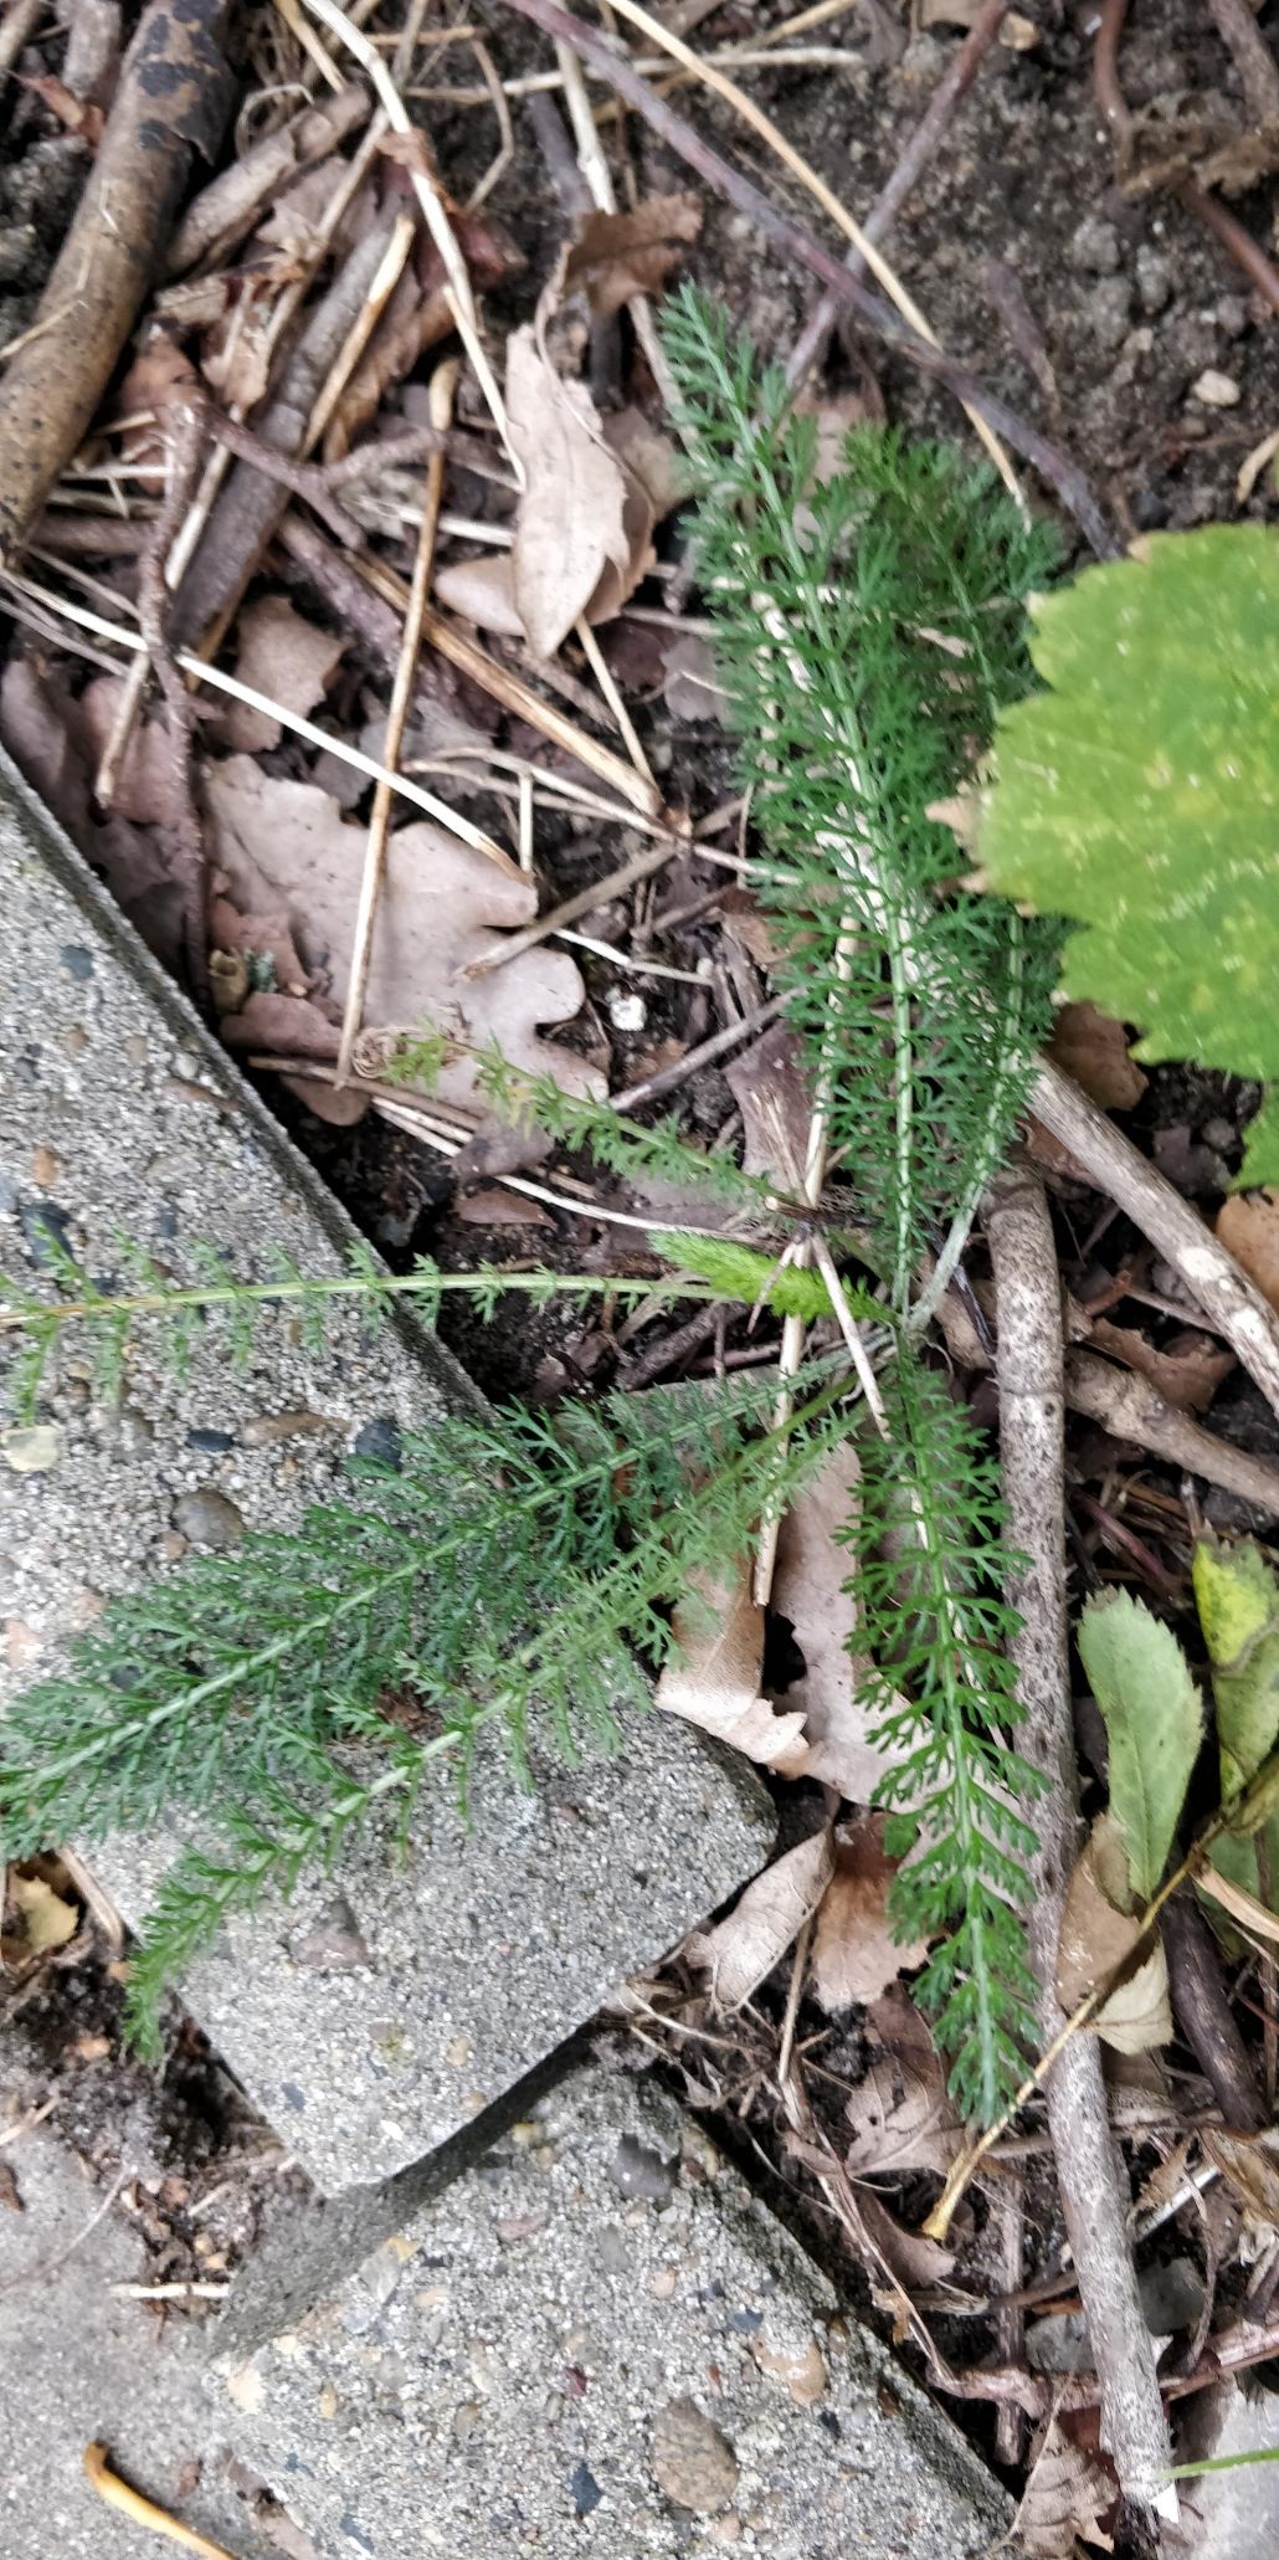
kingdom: Plantae
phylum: Tracheophyta
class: Magnoliopsida
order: Asterales
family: Asteraceae
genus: Achillea
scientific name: Achillea millefolium
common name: Almindelig røllike
